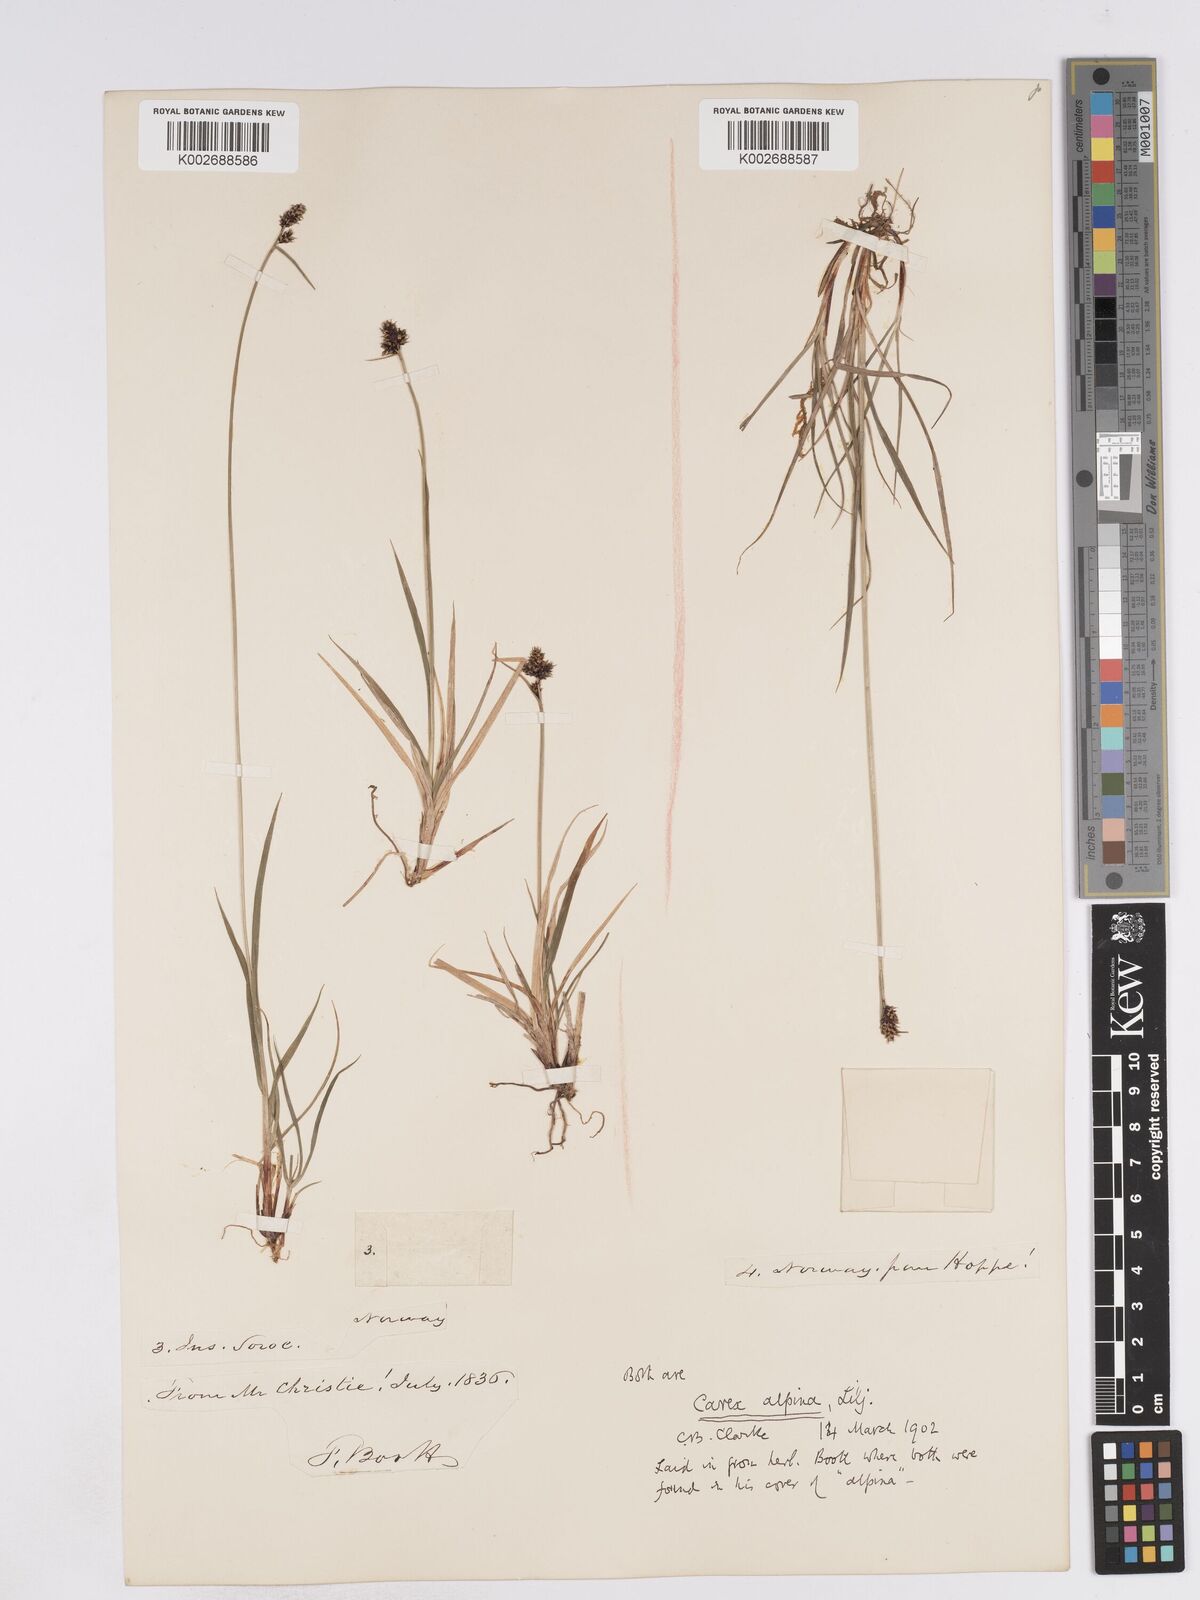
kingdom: Plantae
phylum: Tracheophyta
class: Liliopsida
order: Poales
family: Cyperaceae
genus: Carex
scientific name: Carex norvegica
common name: Close-headed alpine-sedge
